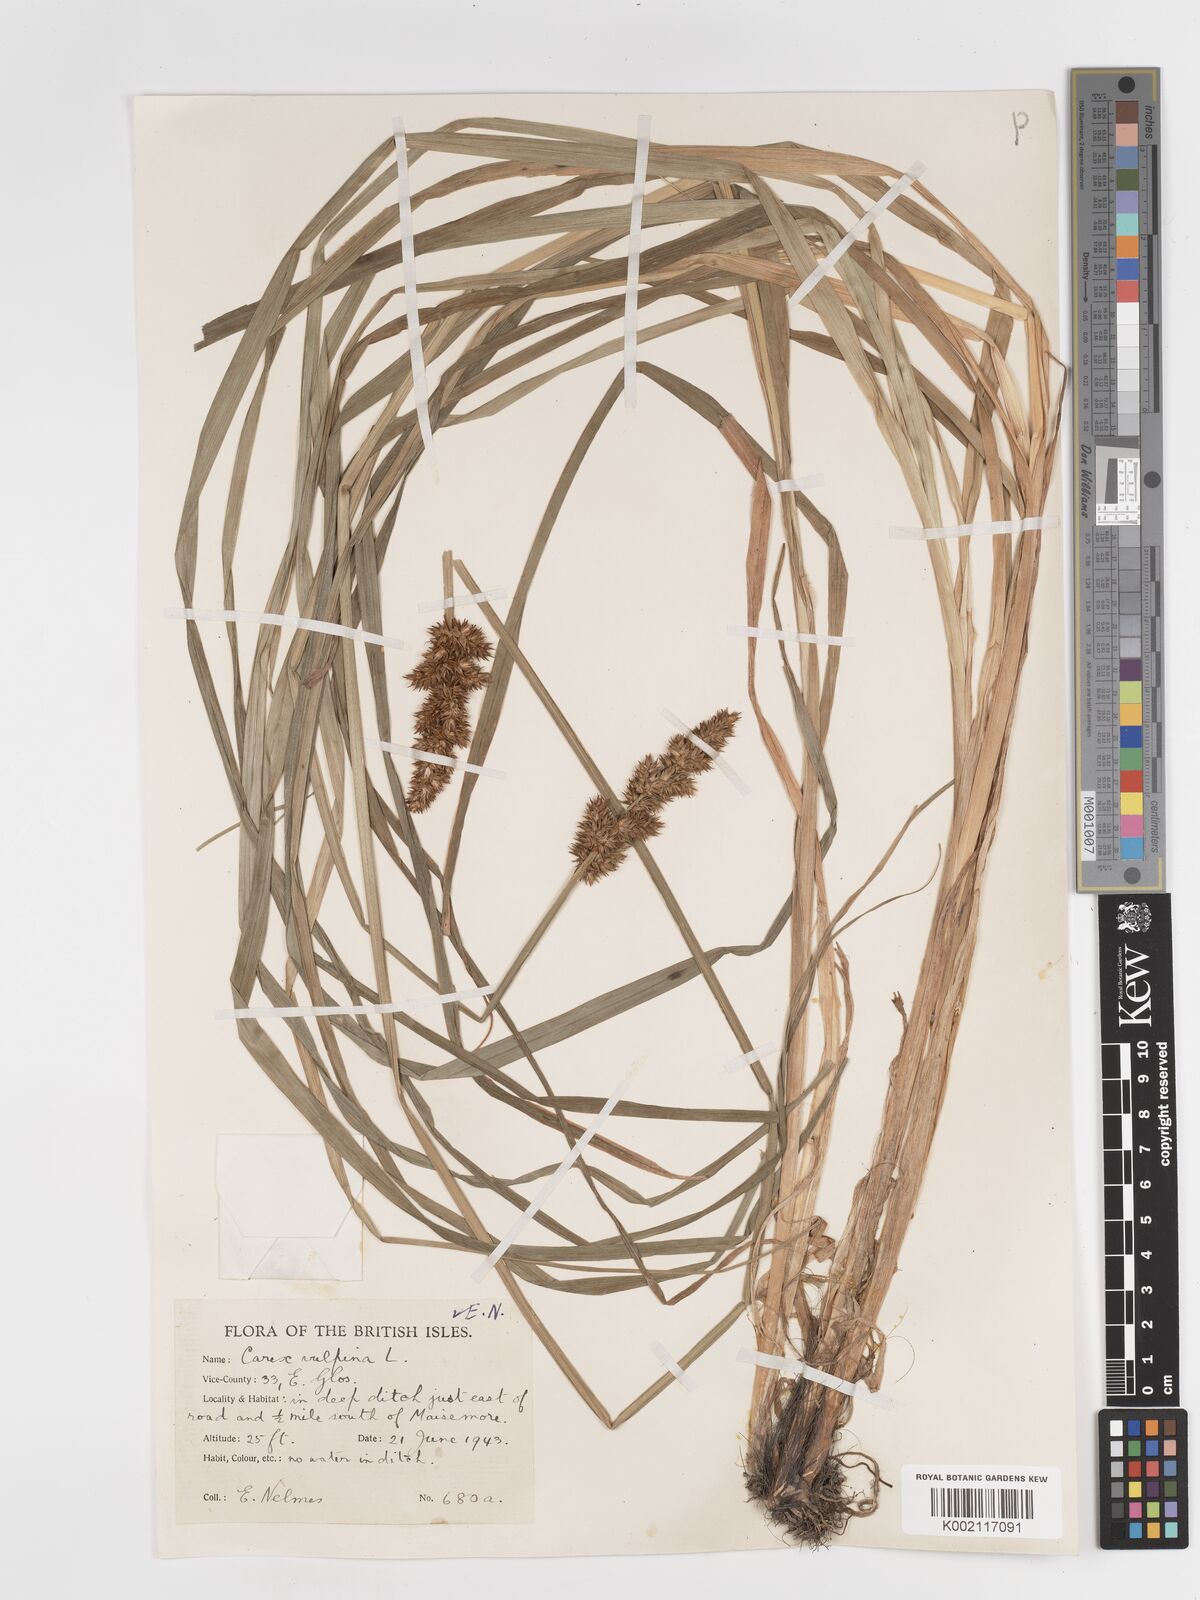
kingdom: Plantae
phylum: Tracheophyta
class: Liliopsida
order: Poales
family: Cyperaceae
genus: Carex
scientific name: Carex vulpina
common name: True fox-sedge
